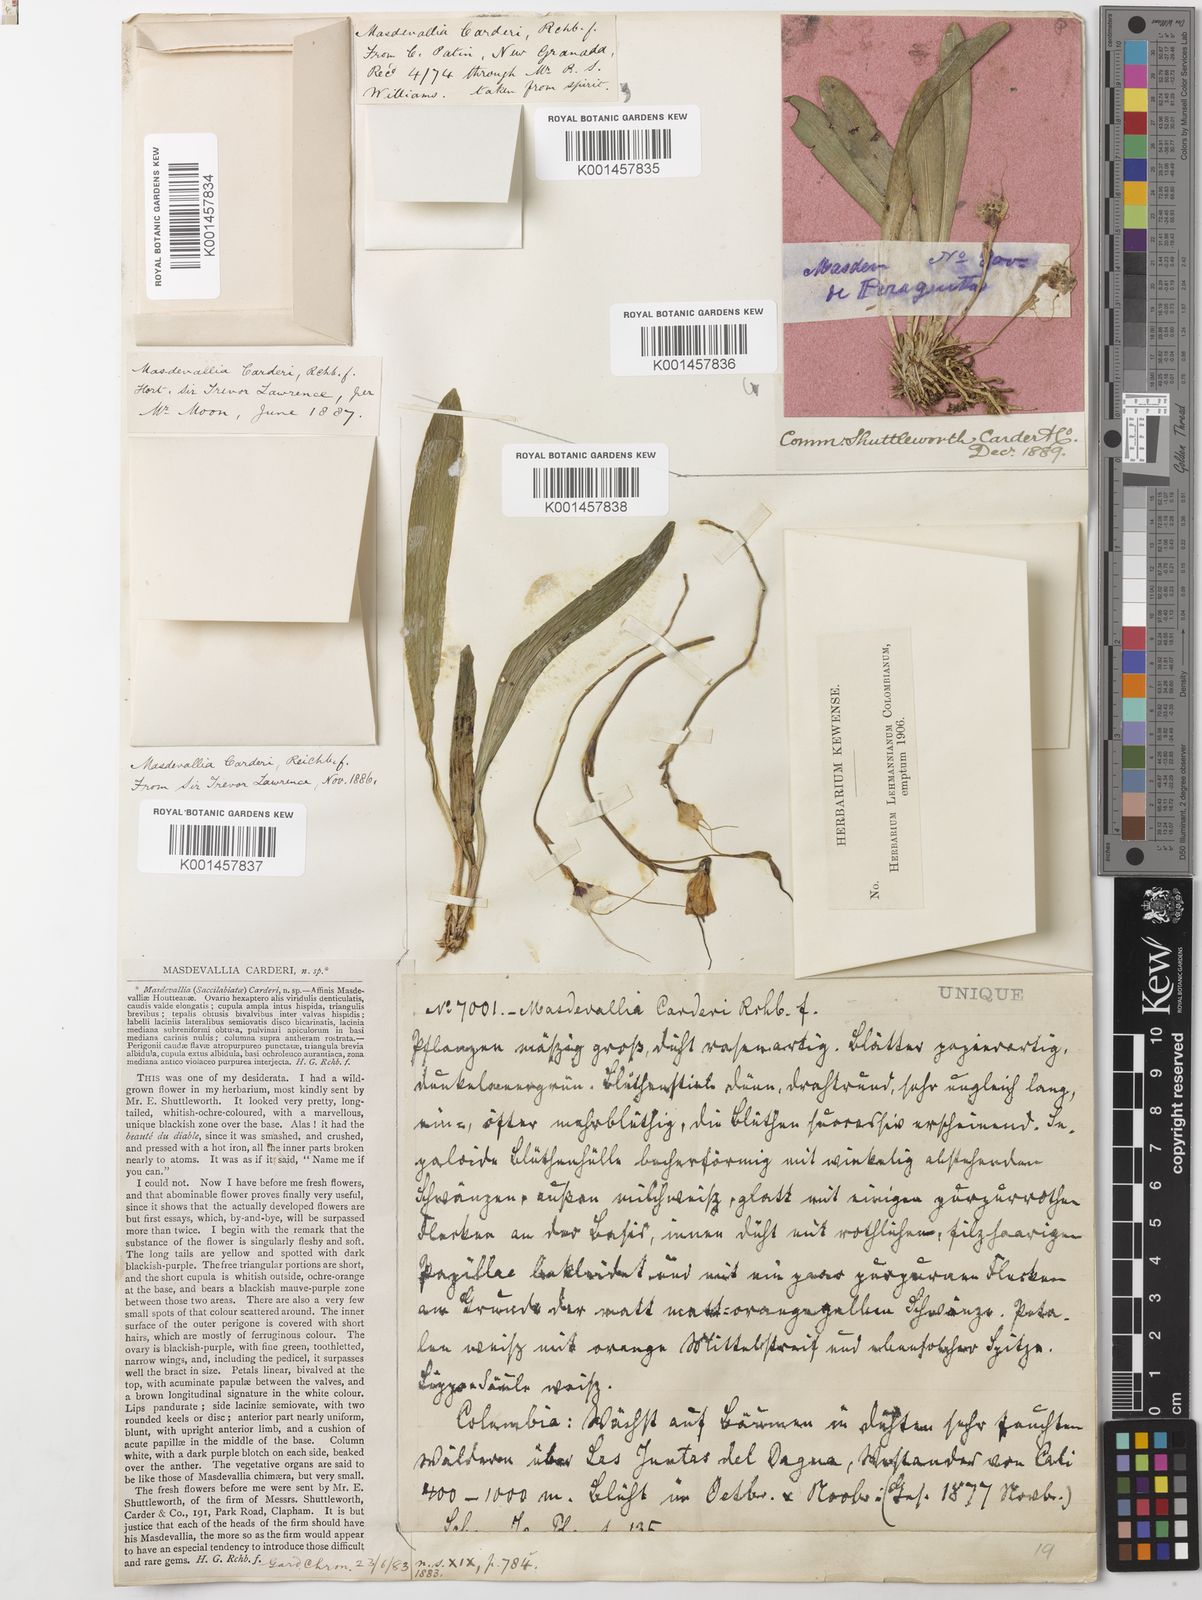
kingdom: Plantae
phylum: Tracheophyta
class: Liliopsida
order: Asparagales
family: Orchidaceae
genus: Dracula
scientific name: Dracula inaequalis
